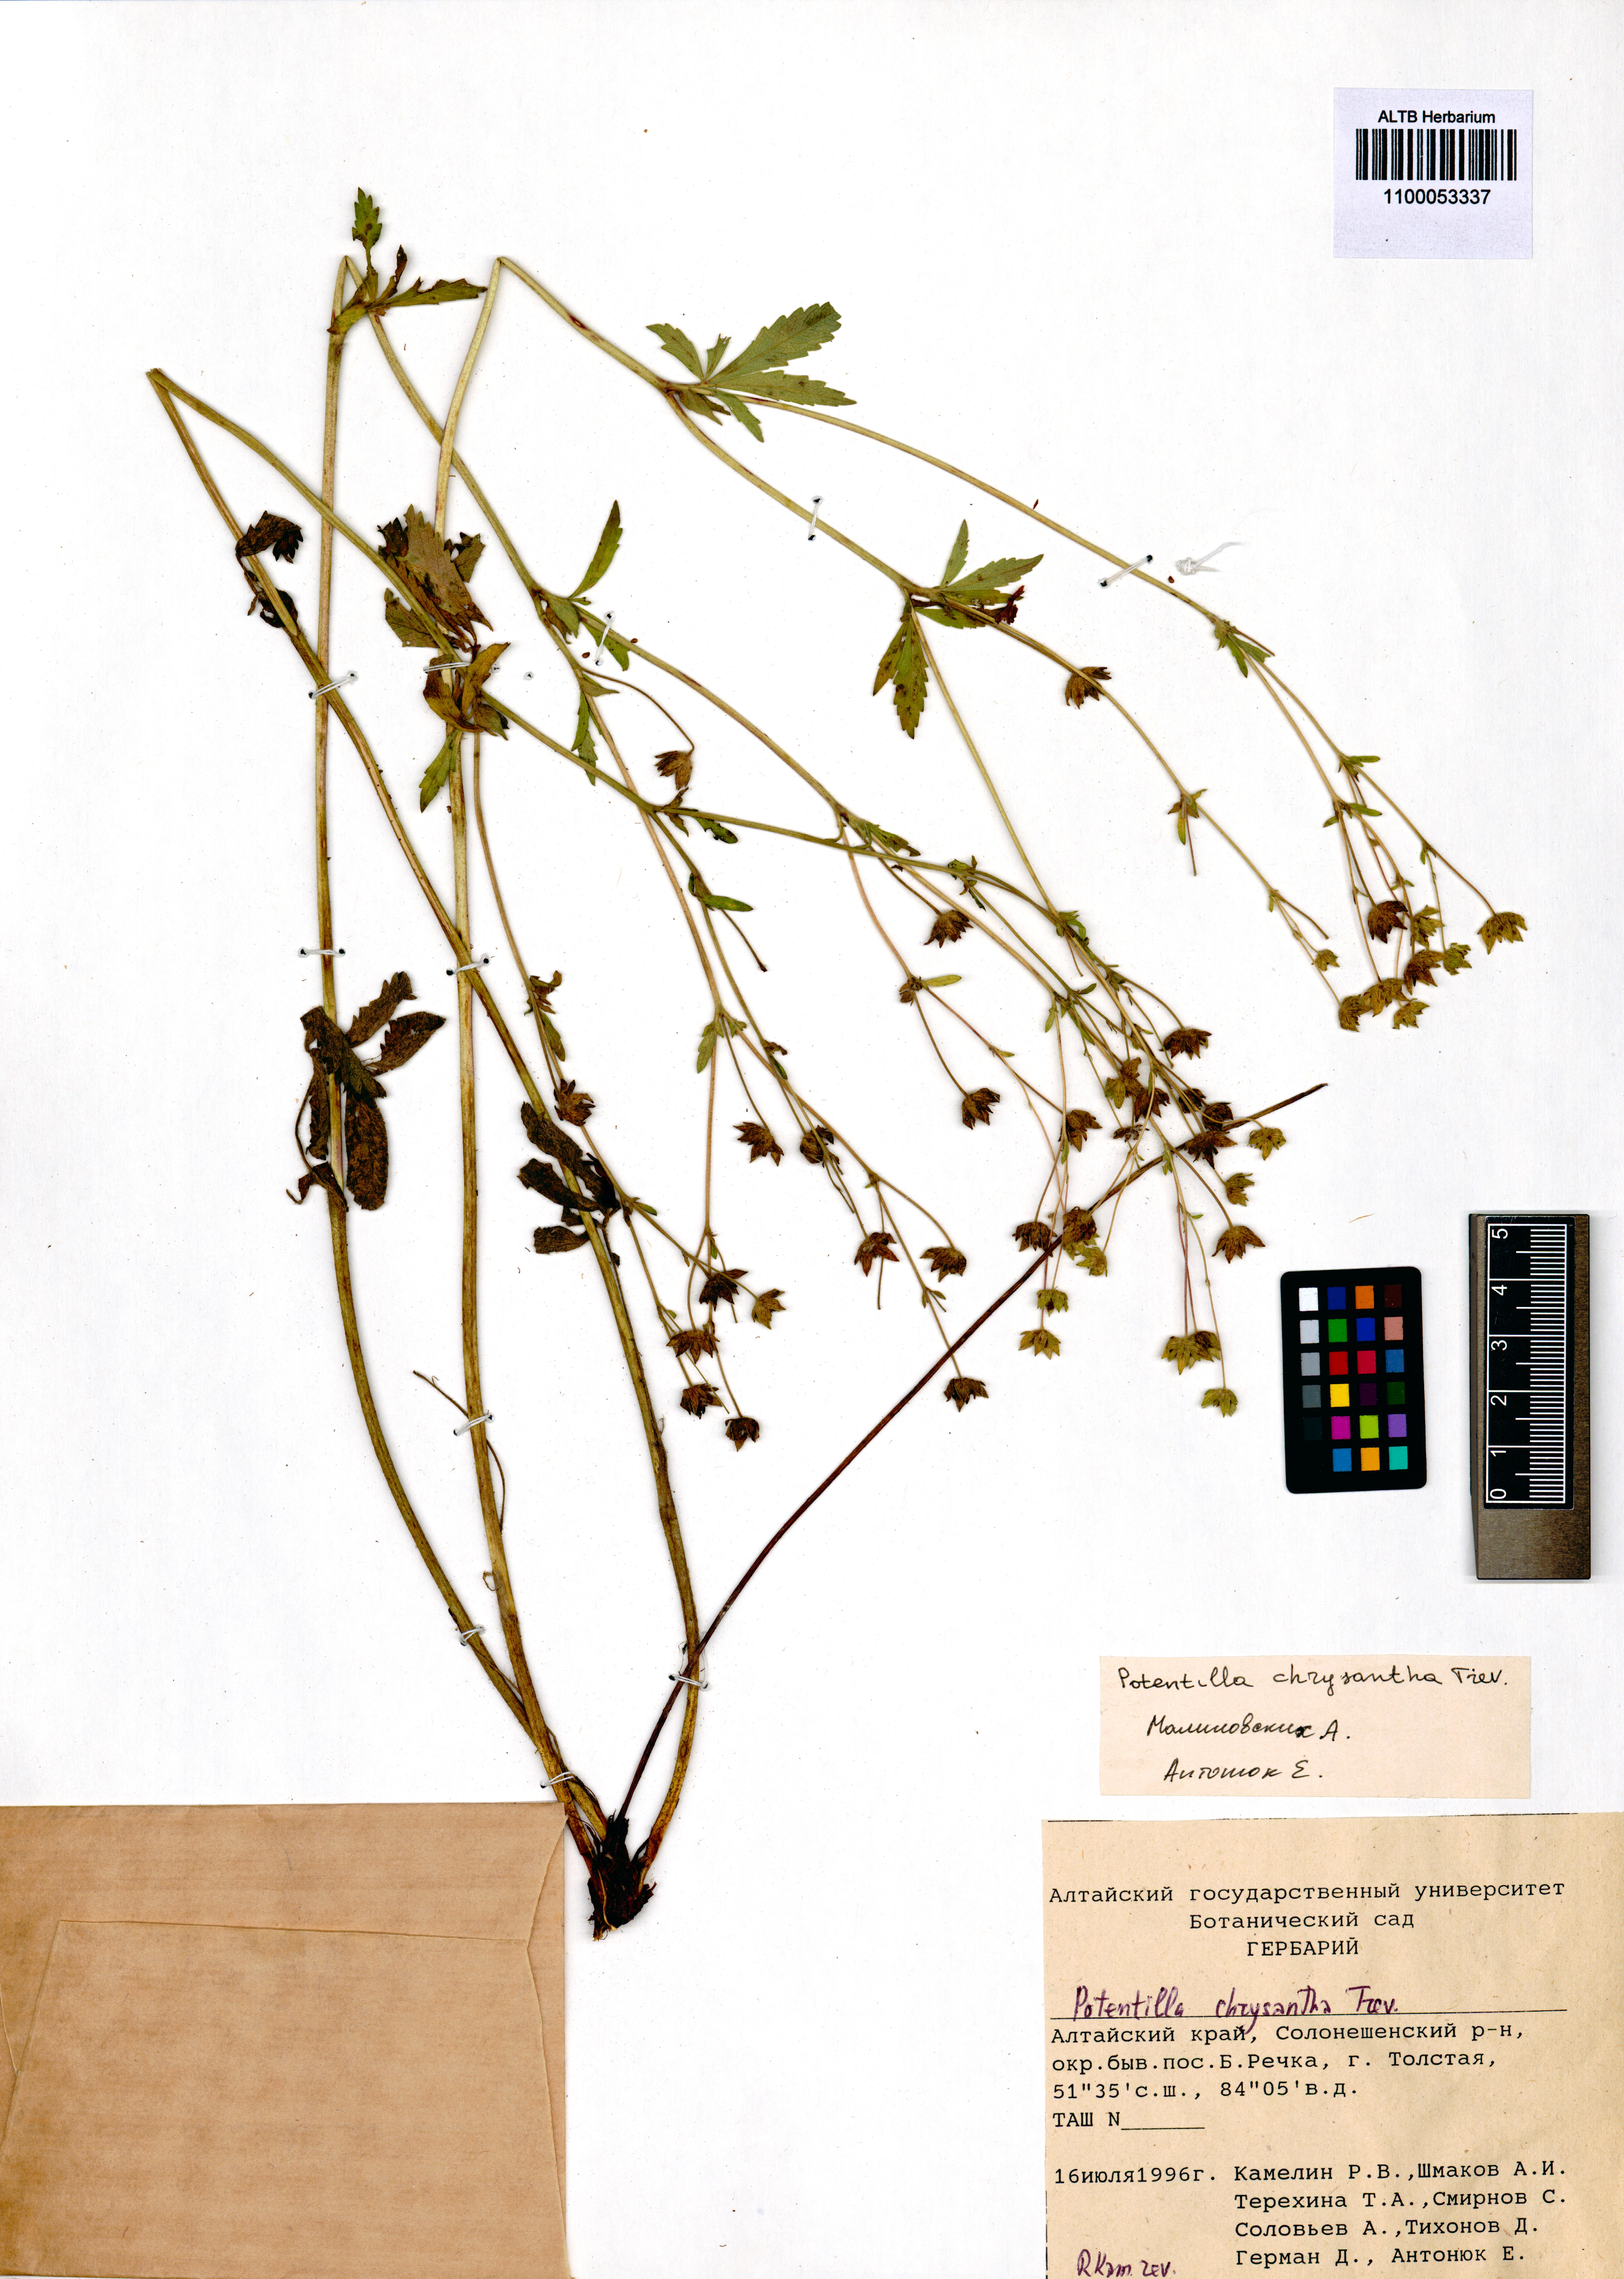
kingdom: Plantae
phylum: Tracheophyta
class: Magnoliopsida
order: Rosales
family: Rosaceae
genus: Potentilla
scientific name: Potentilla chrysantha
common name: Thuringian cinquefoil
